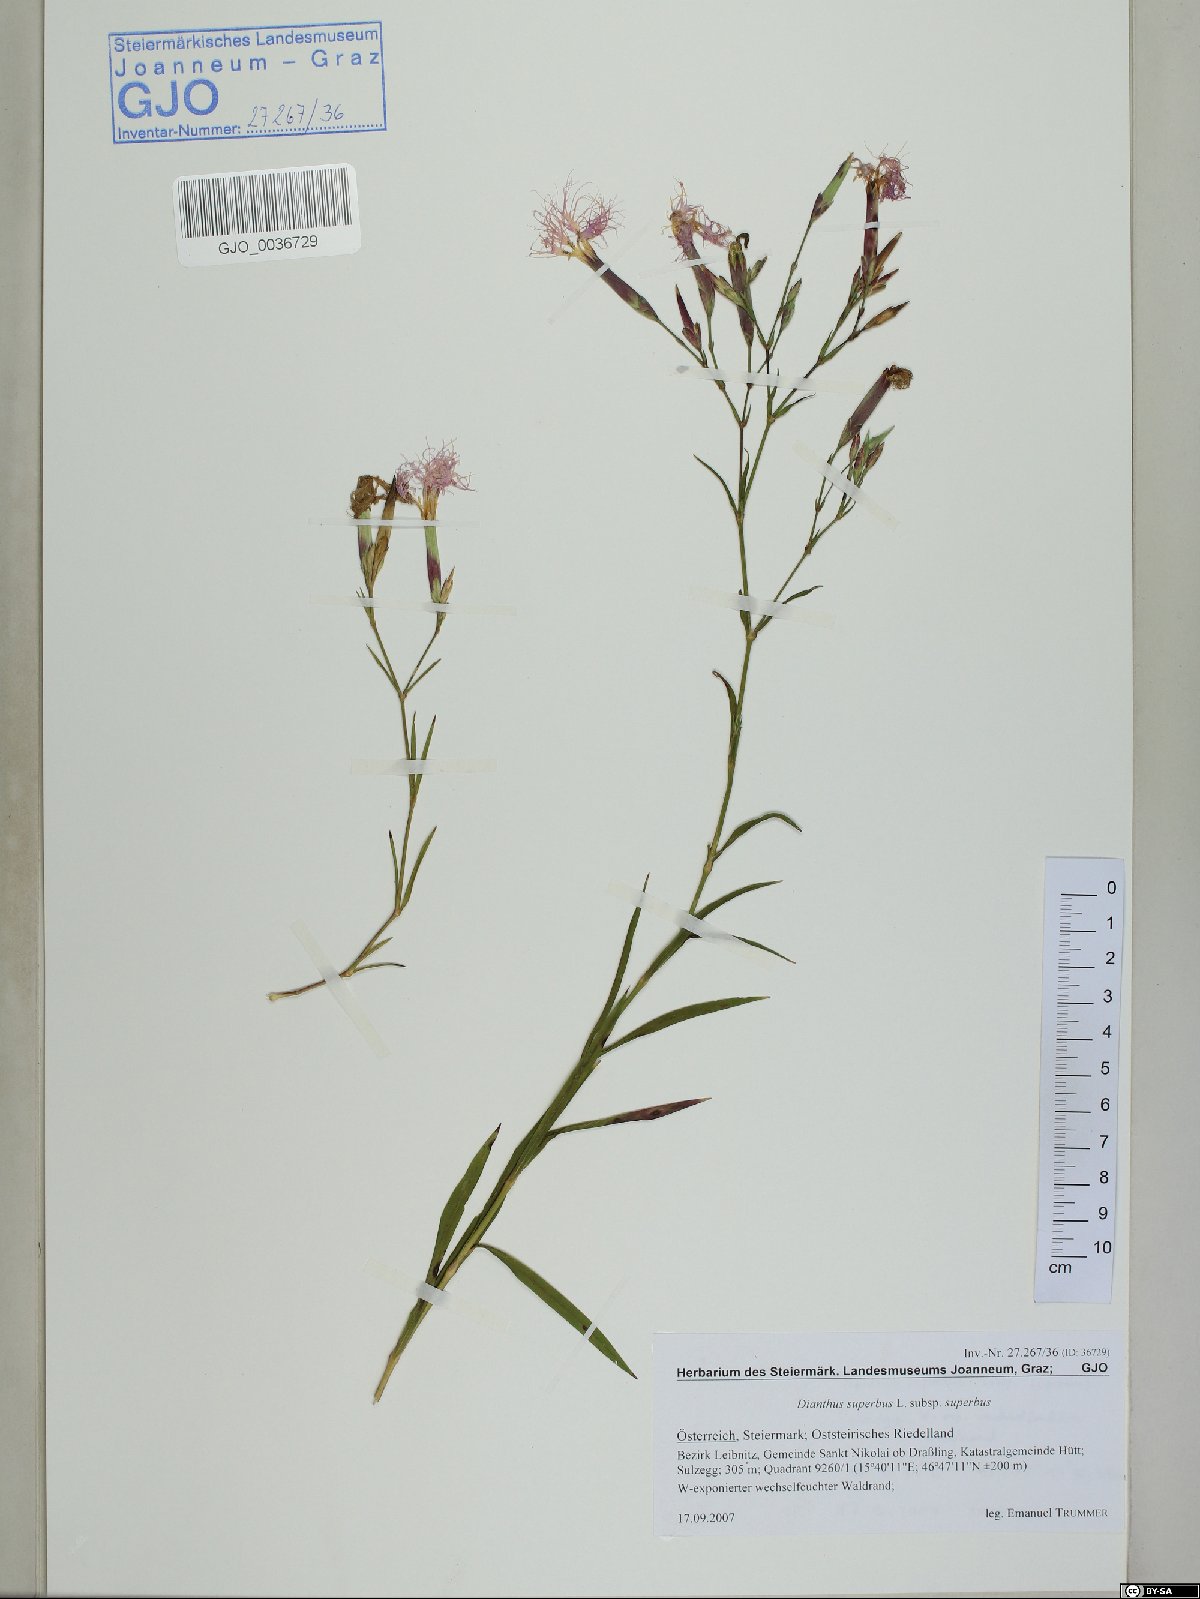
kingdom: Plantae
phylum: Tracheophyta
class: Magnoliopsida
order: Caryophyllales
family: Caryophyllaceae
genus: Dianthus
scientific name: Dianthus superbus
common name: Fringed pink
